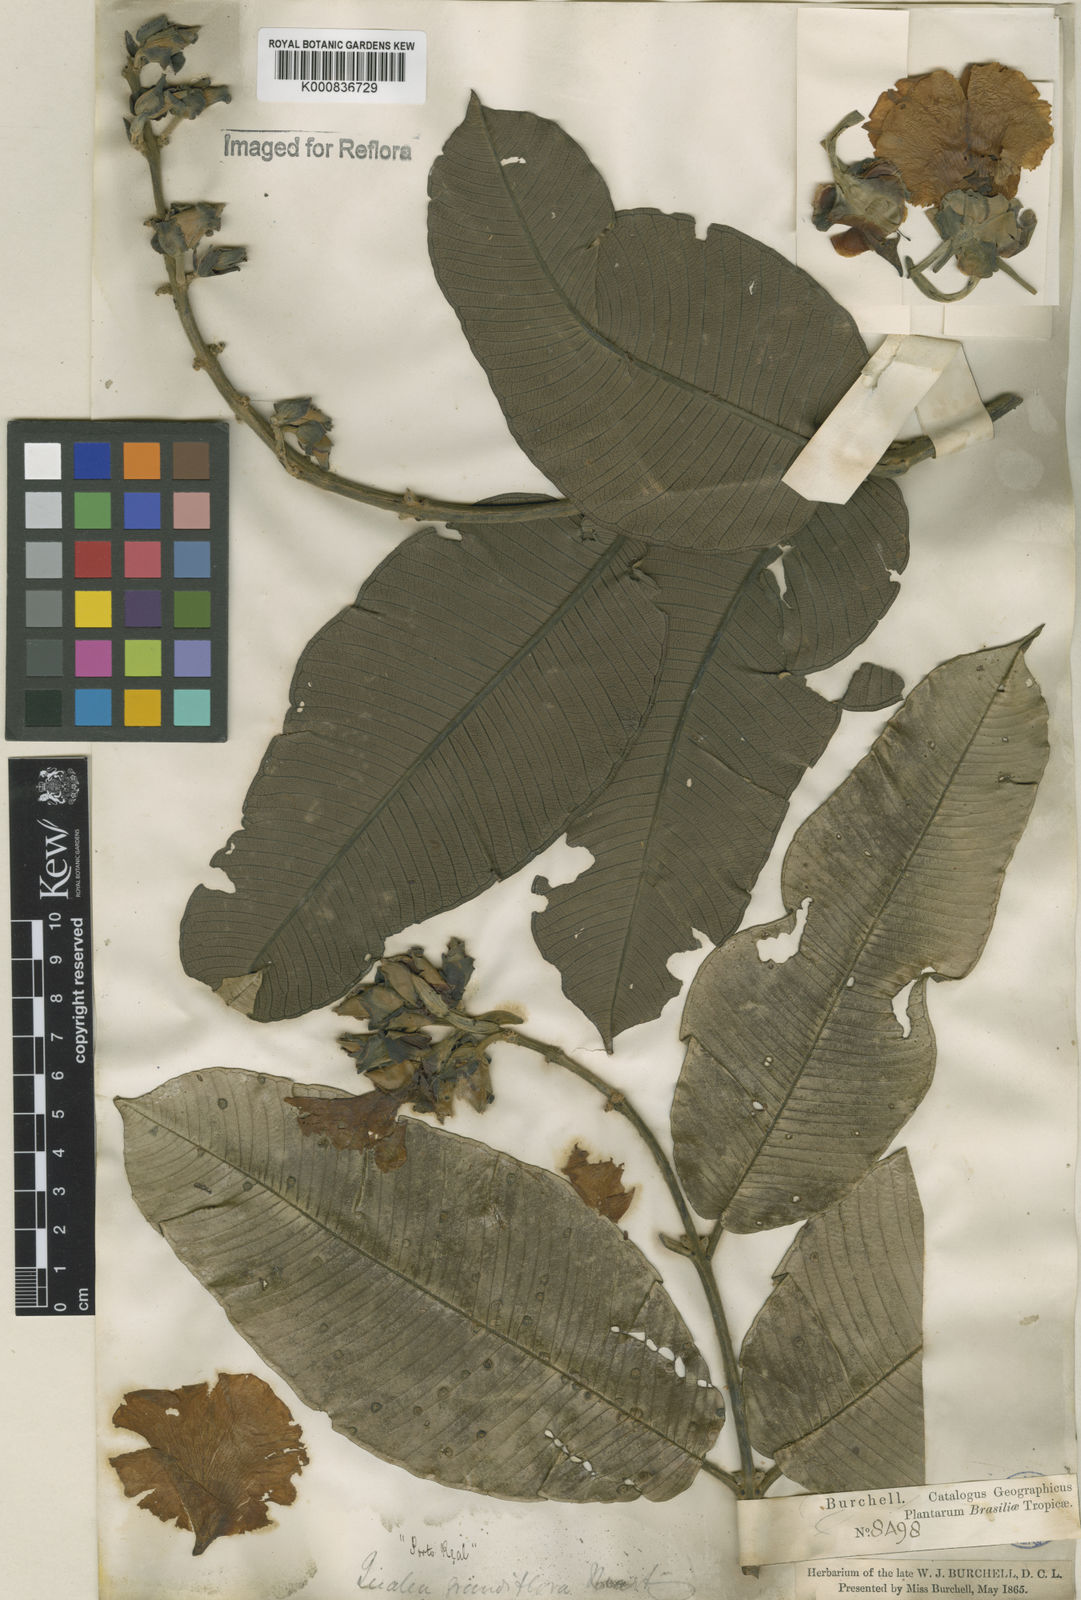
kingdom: Plantae
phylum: Tracheophyta
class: Magnoliopsida
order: Myrtales
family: Vochysiaceae
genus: Qualea
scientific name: Qualea grandiflora
